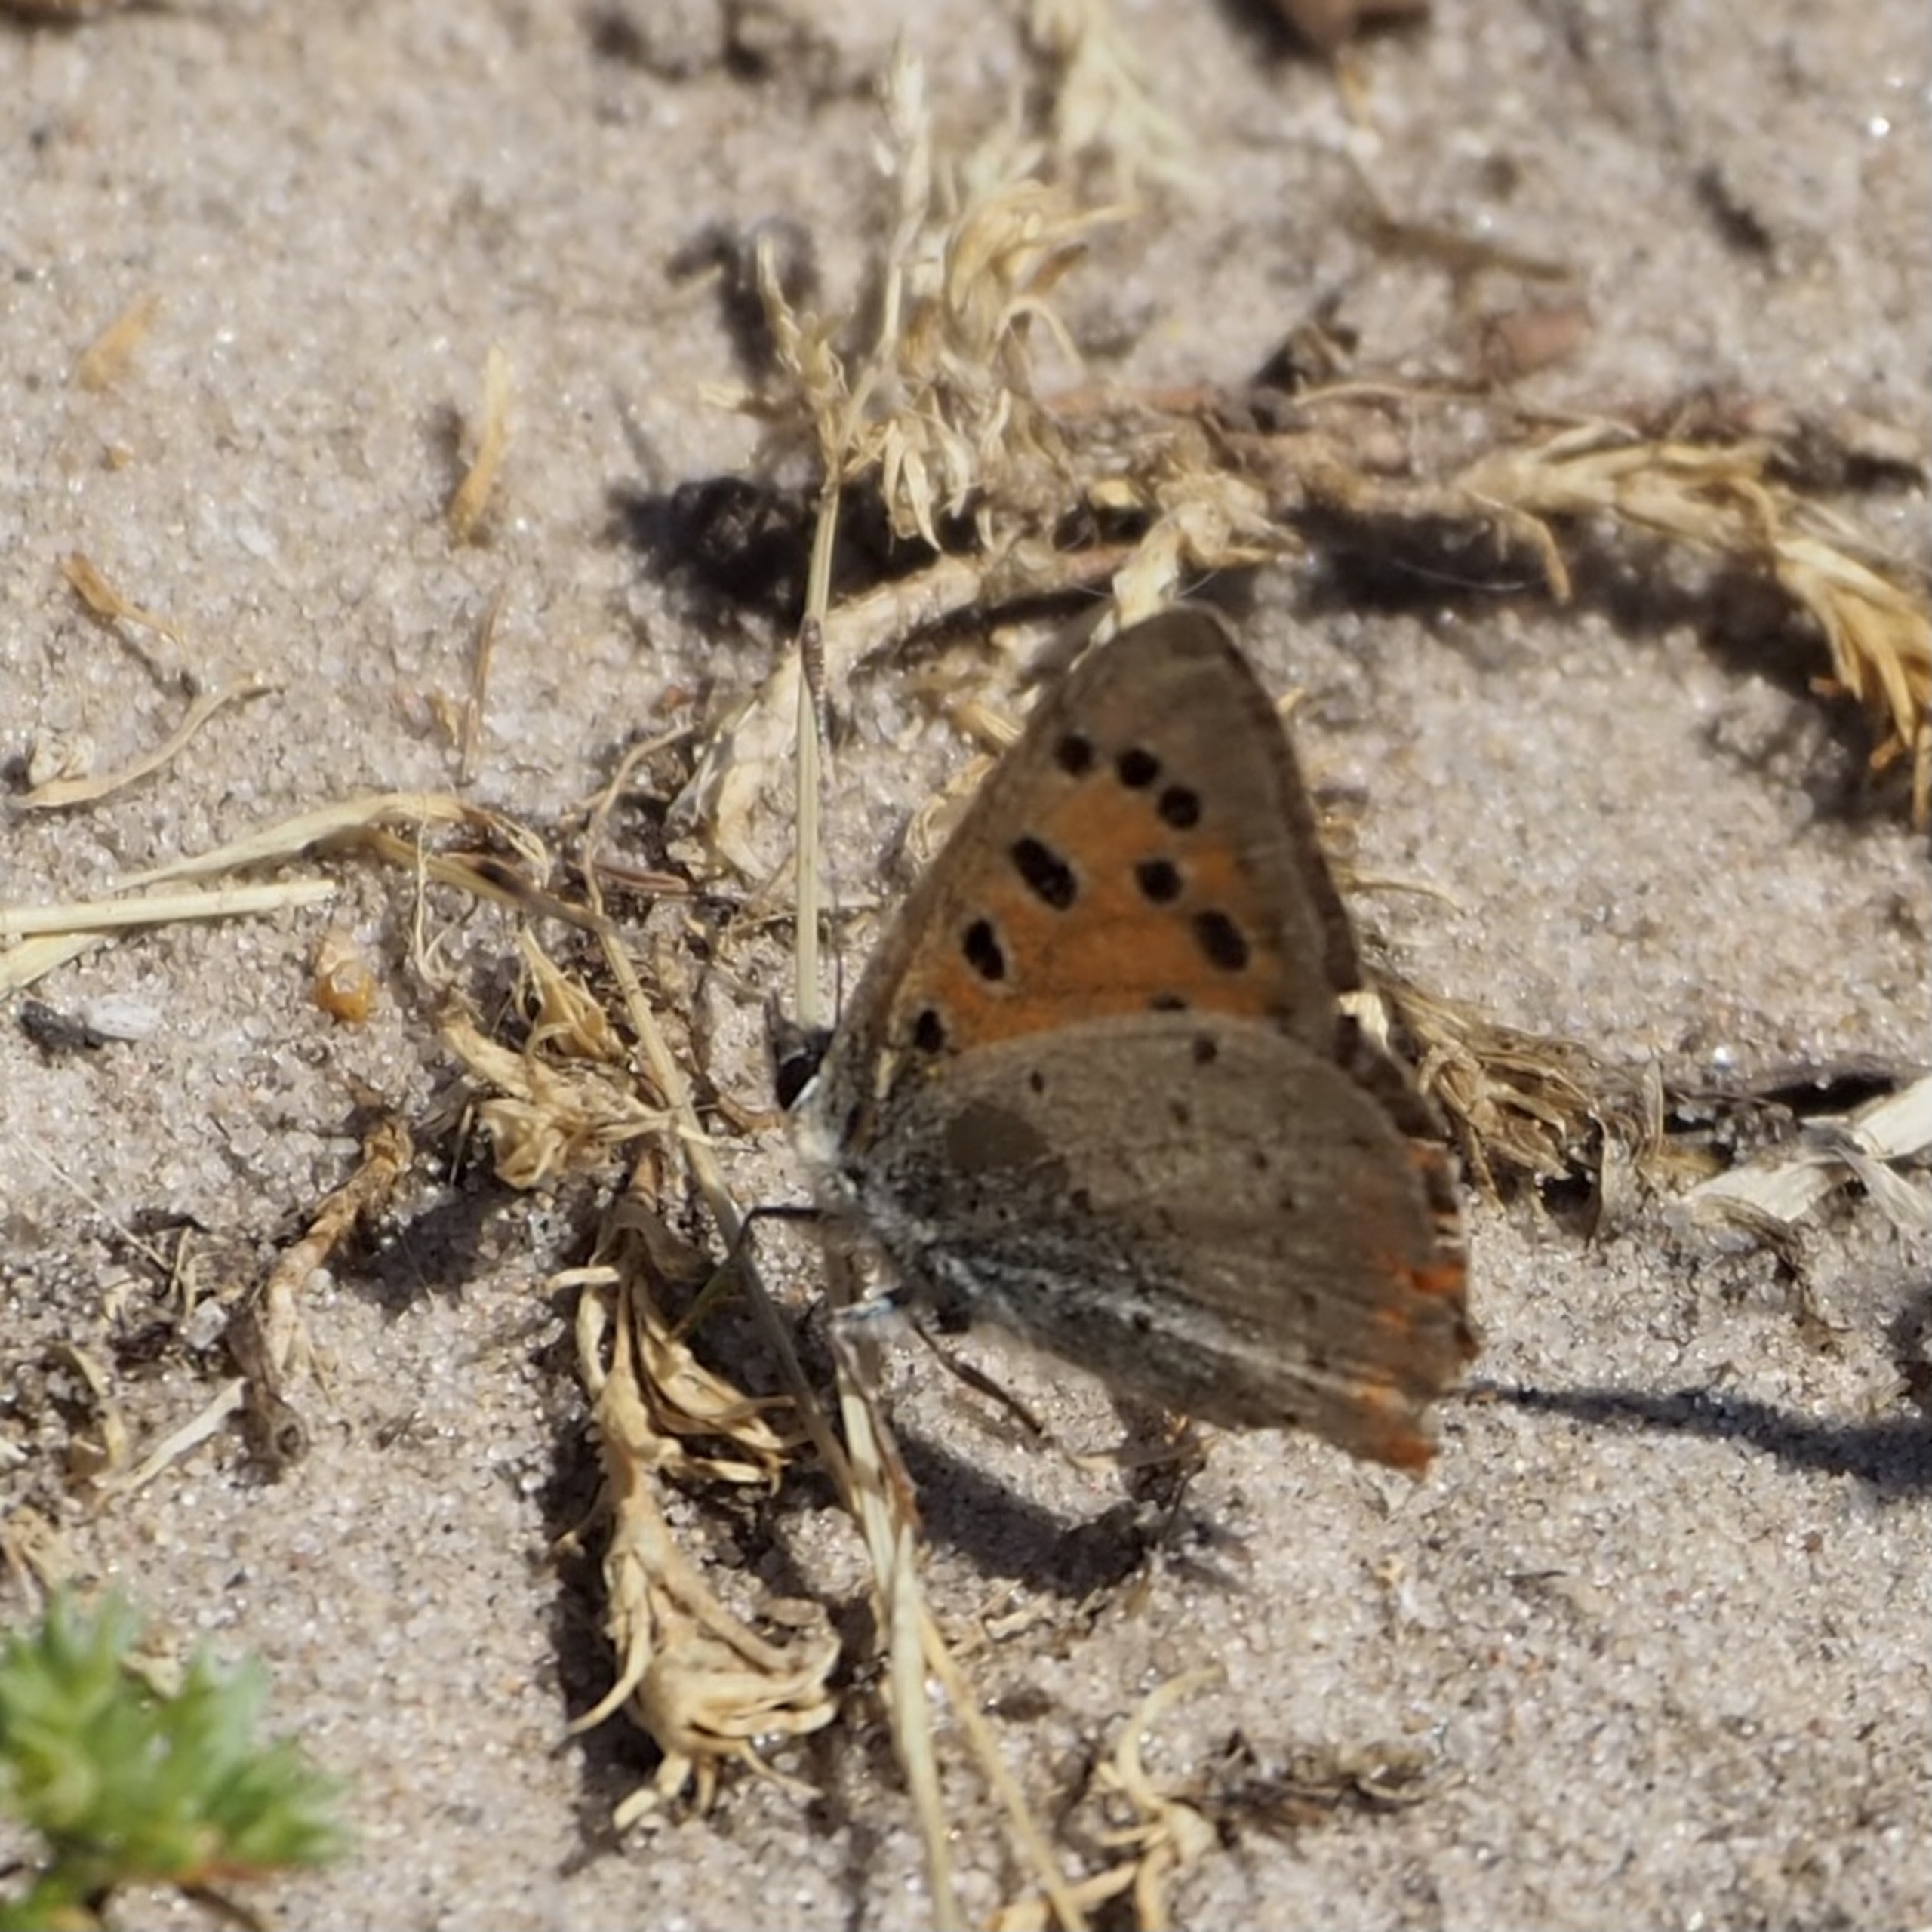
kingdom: Animalia
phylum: Arthropoda
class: Insecta
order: Lepidoptera
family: Lycaenidae
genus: Lycaena
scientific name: Lycaena phlaeas
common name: Lille ildfugl
